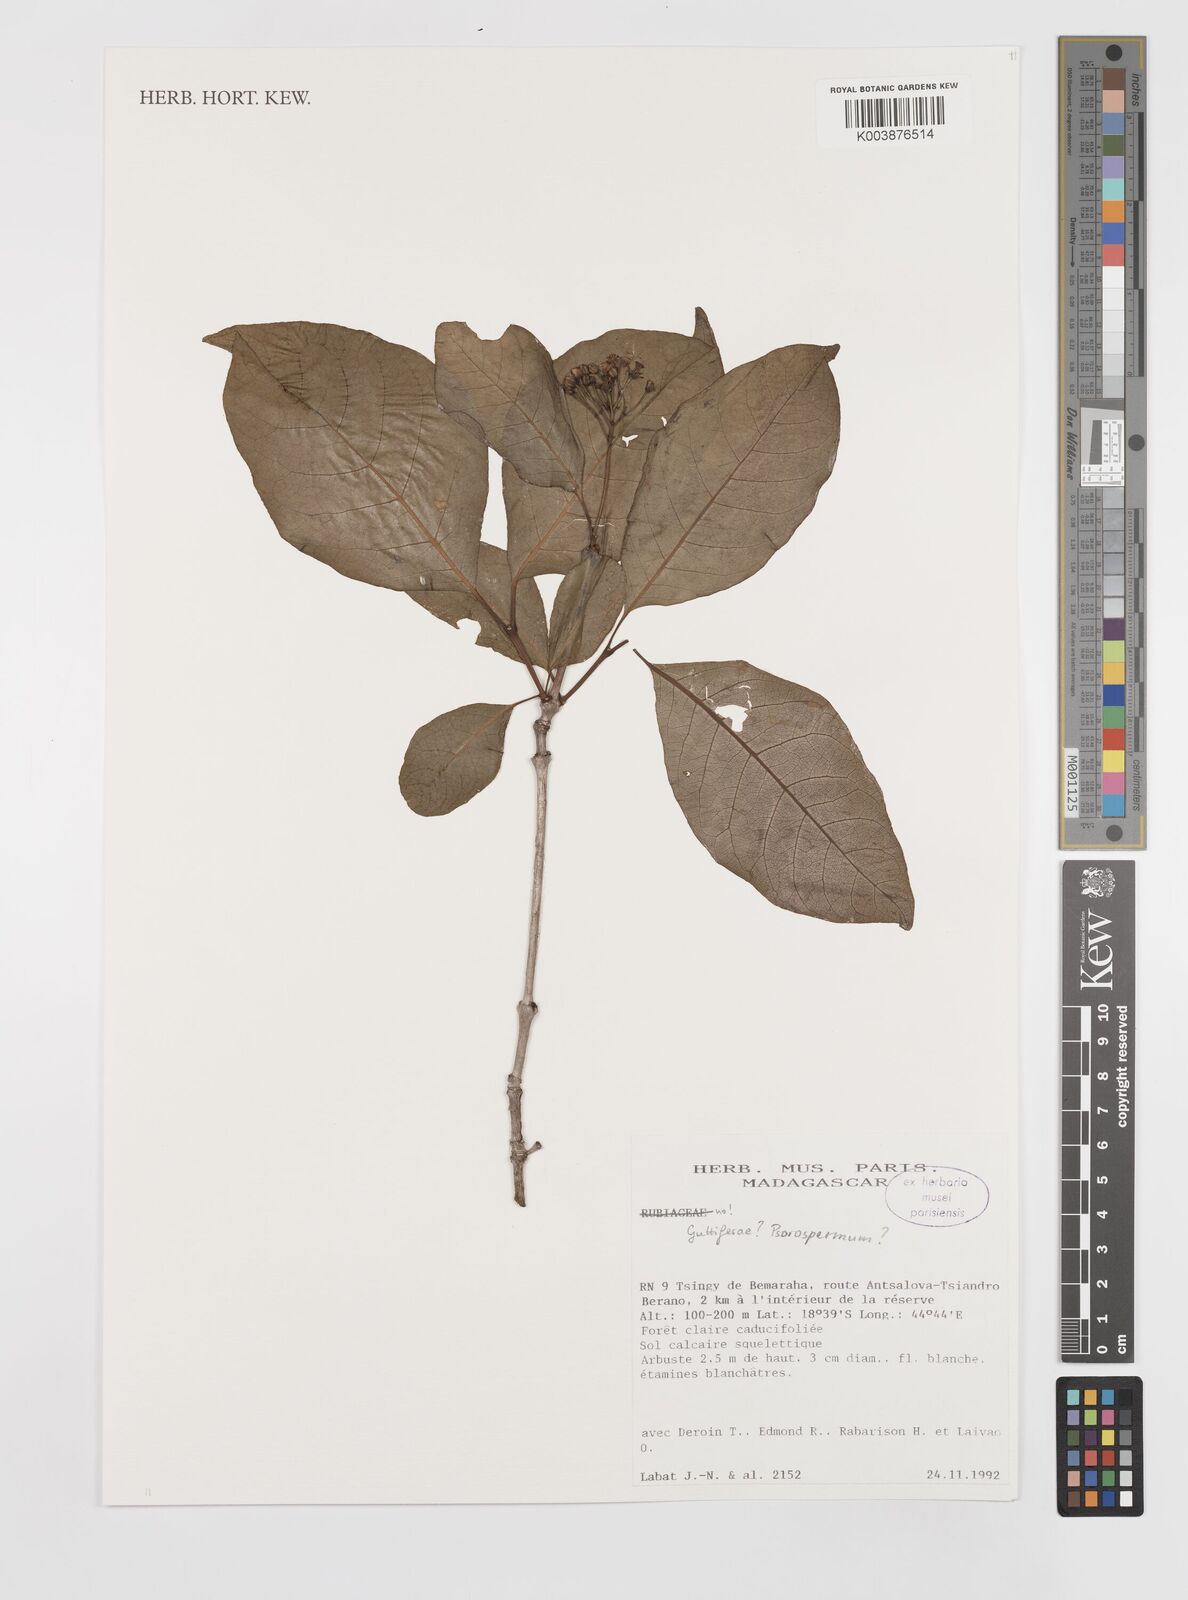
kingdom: Plantae
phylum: Tracheophyta
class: Magnoliopsida
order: Malpighiales
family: Hypericaceae
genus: Psorospermum
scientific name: Psorospermum
